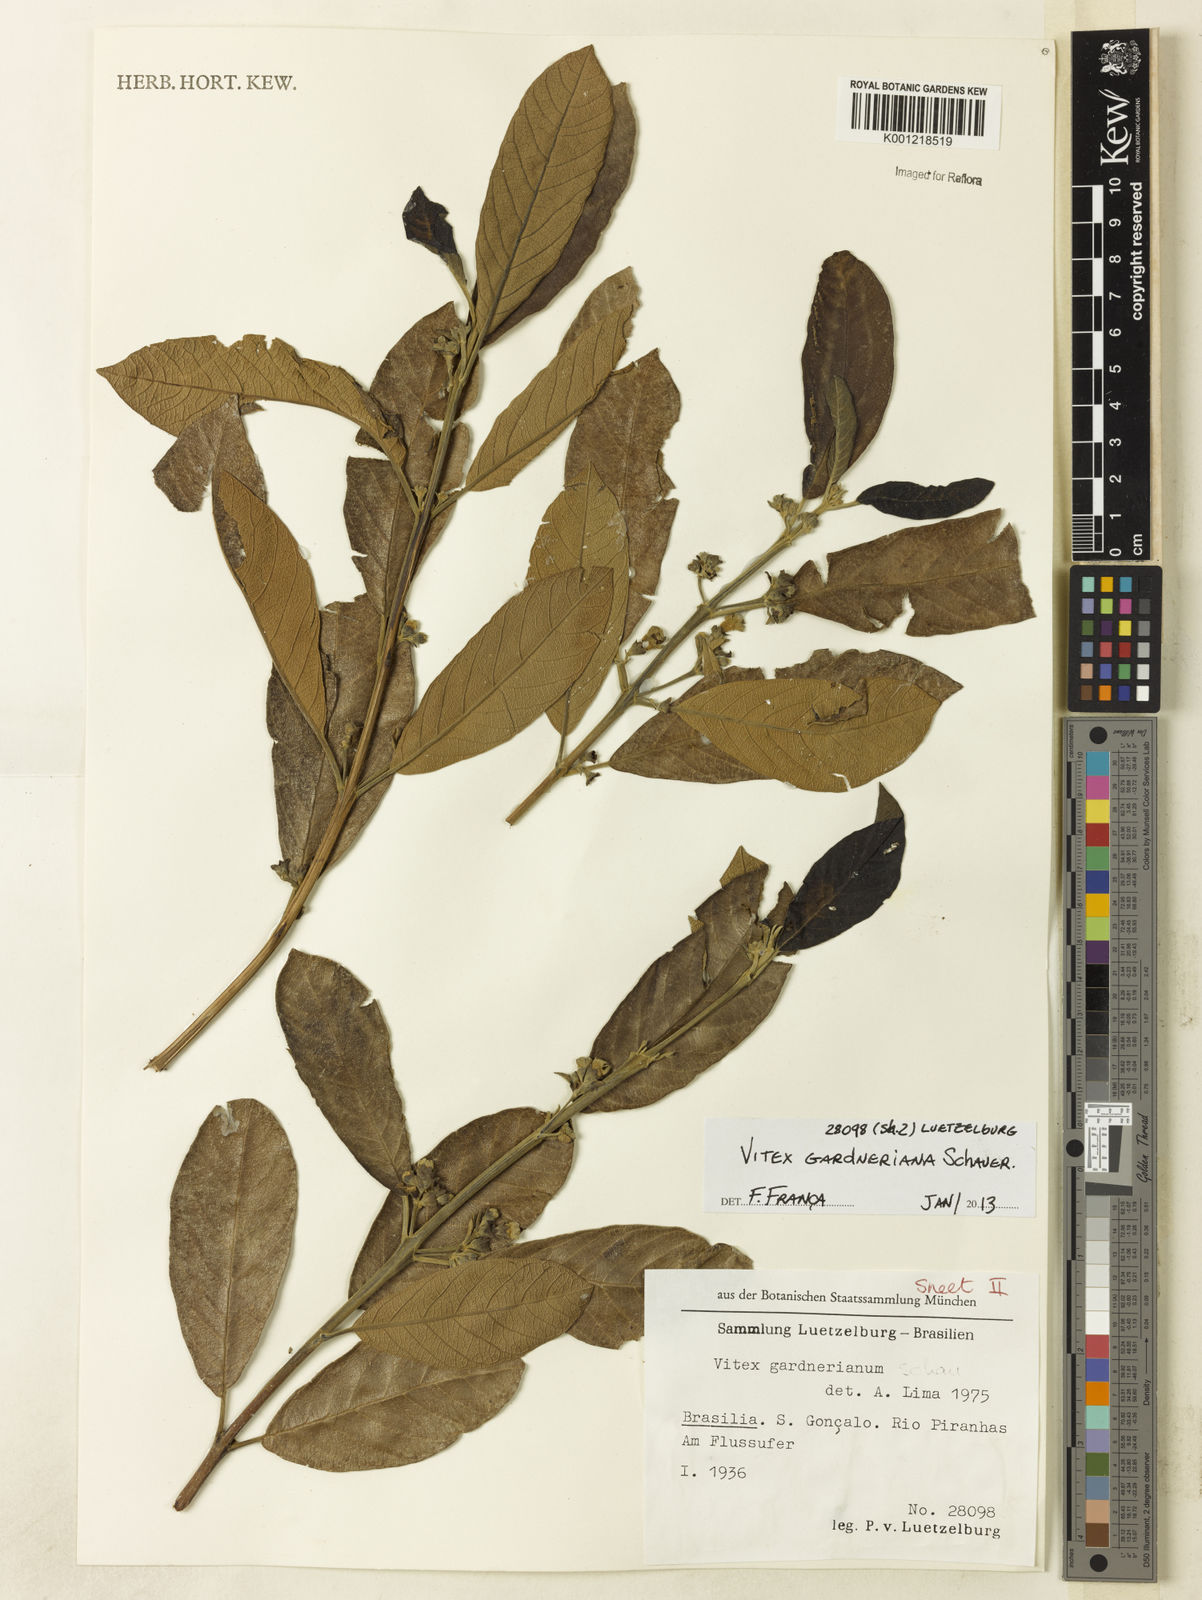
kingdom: Plantae
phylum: Tracheophyta
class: Magnoliopsida
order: Lamiales
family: Lamiaceae
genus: Vitex
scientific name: Vitex gardneriana
